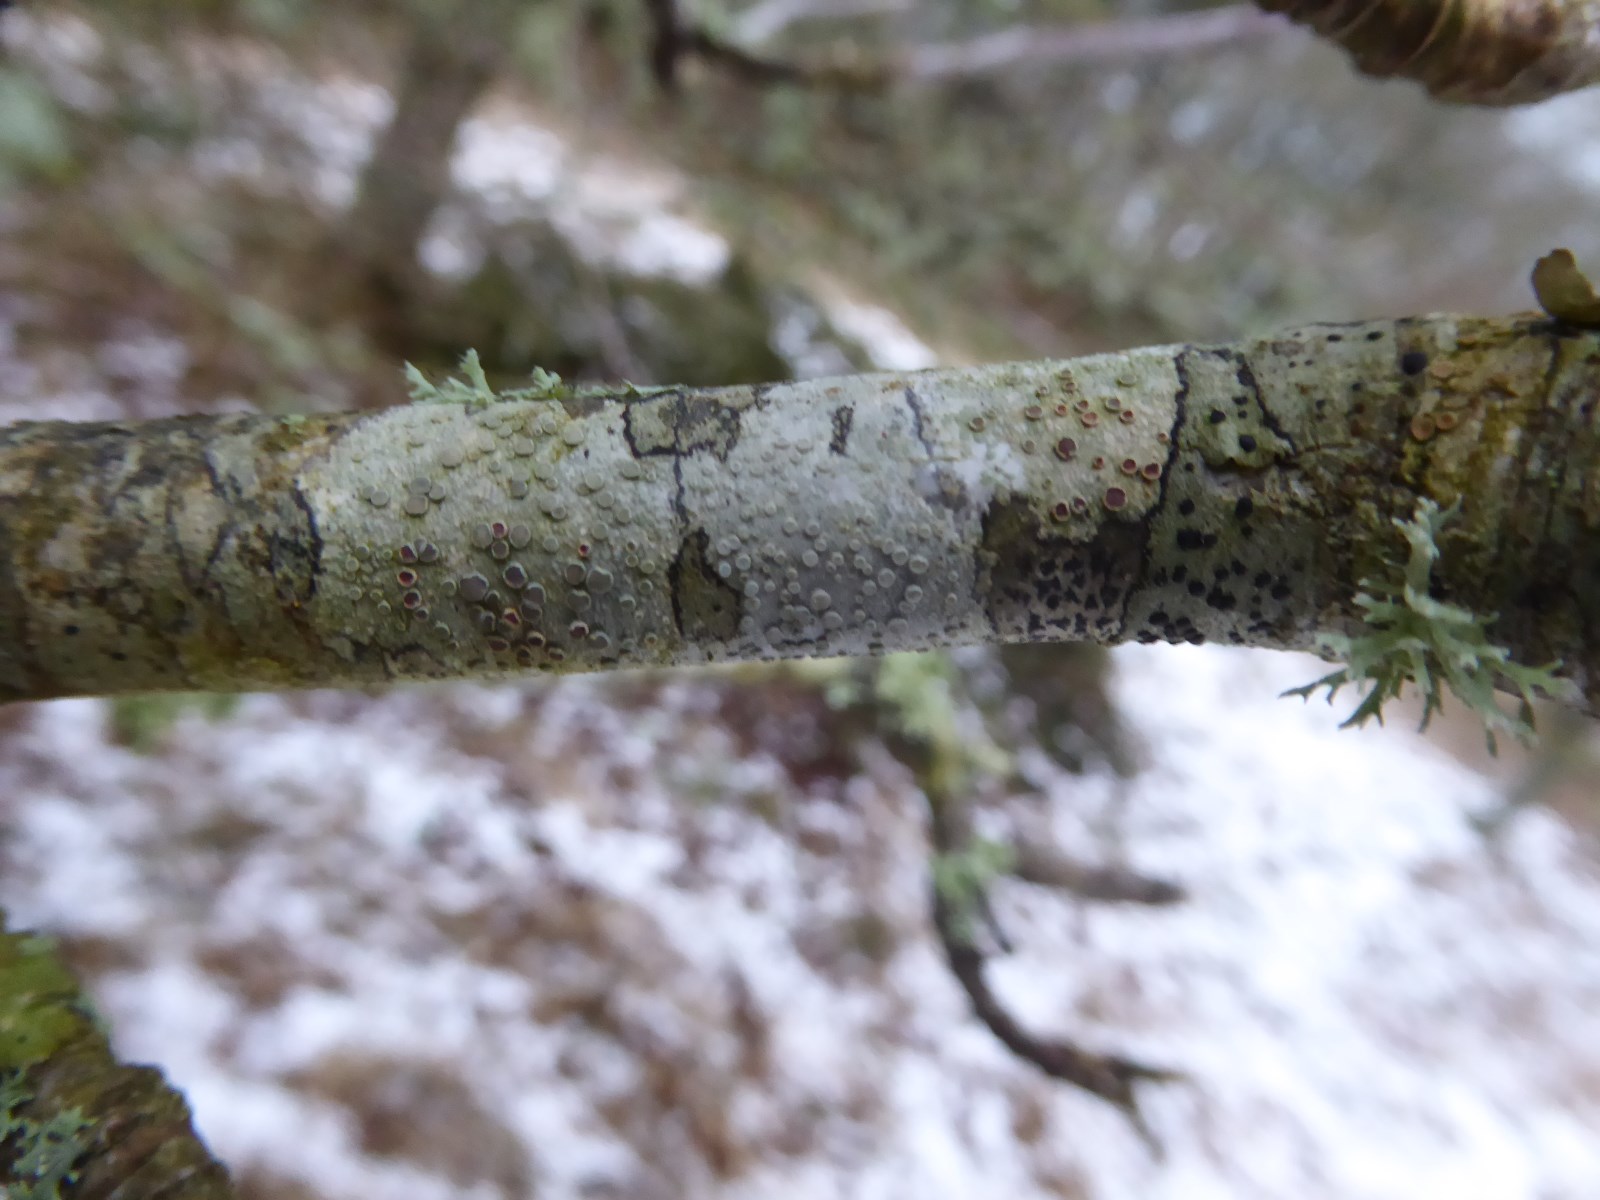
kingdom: Fungi
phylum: Ascomycota
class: Lecanoromycetes
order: Lecanorales
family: Lecanoraceae
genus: Glaucomaria
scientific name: Glaucomaria carpinea
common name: hviddugget kantskivelav
